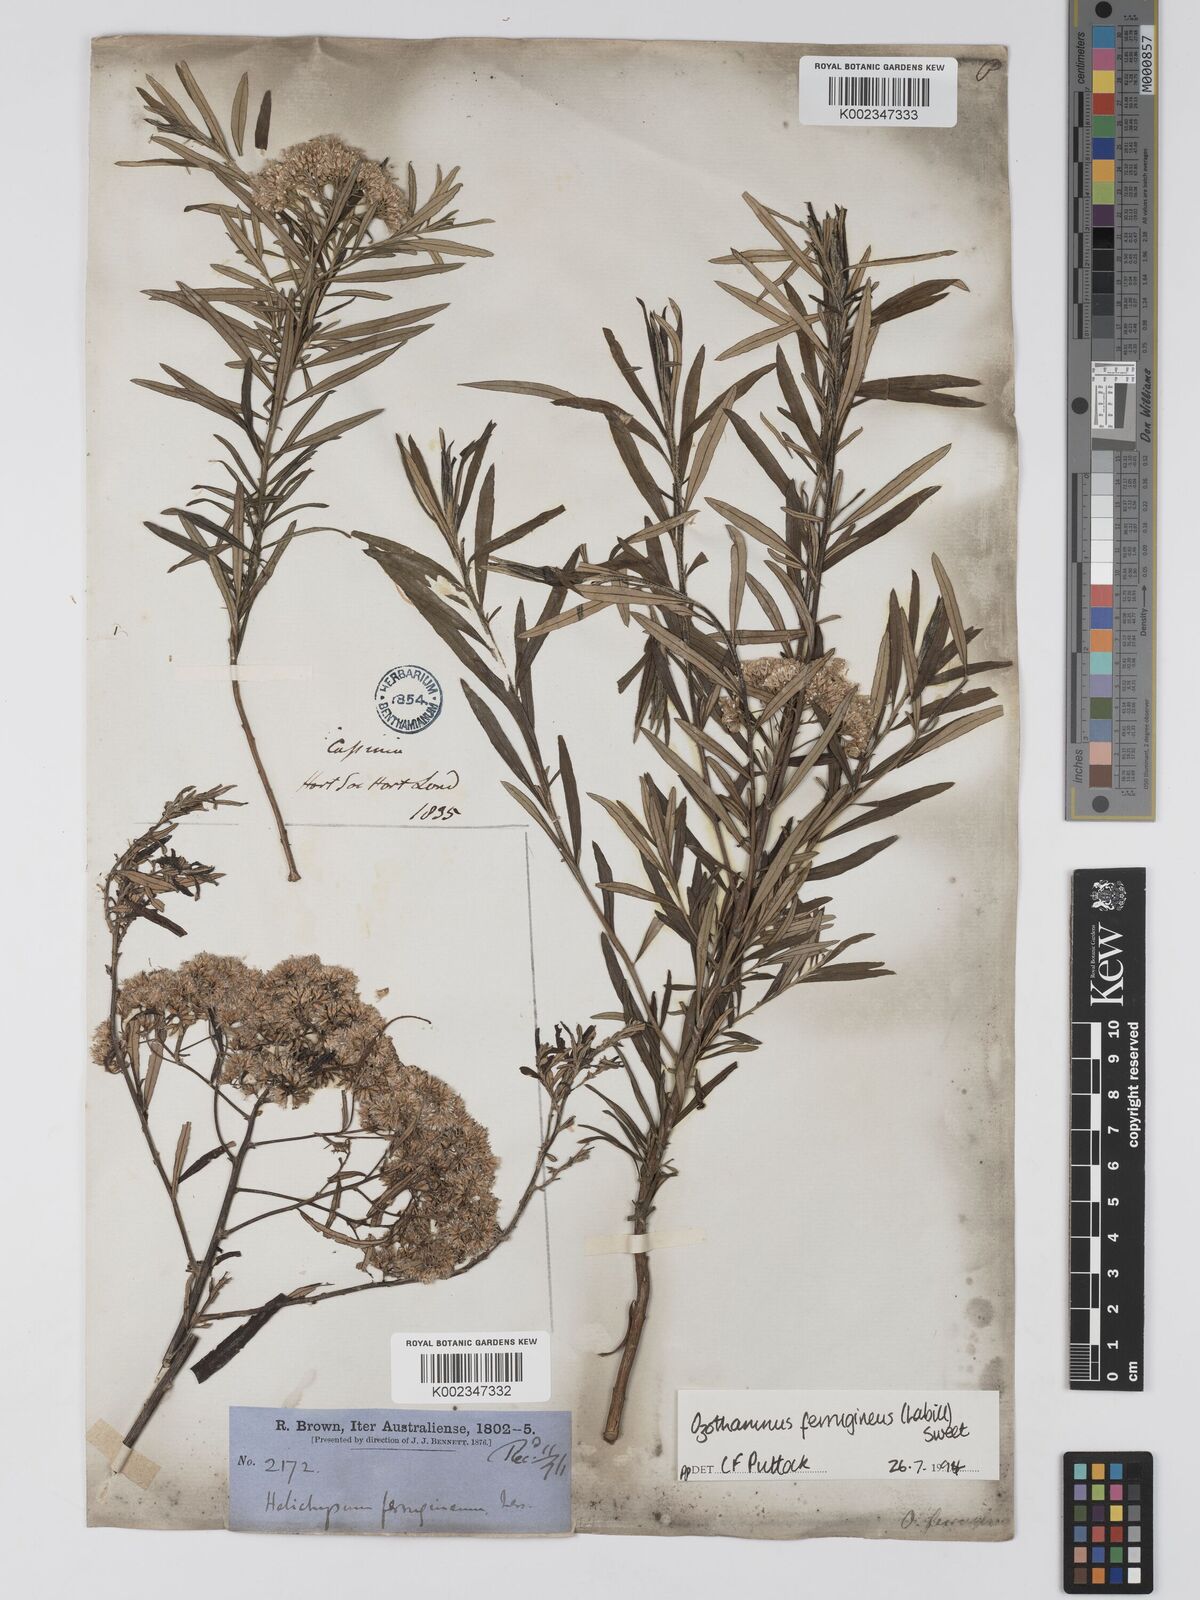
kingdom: Plantae
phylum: Tracheophyta
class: Magnoliopsida
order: Asterales
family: Asteraceae
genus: Ozothamnus
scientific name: Ozothamnus argophyllus
